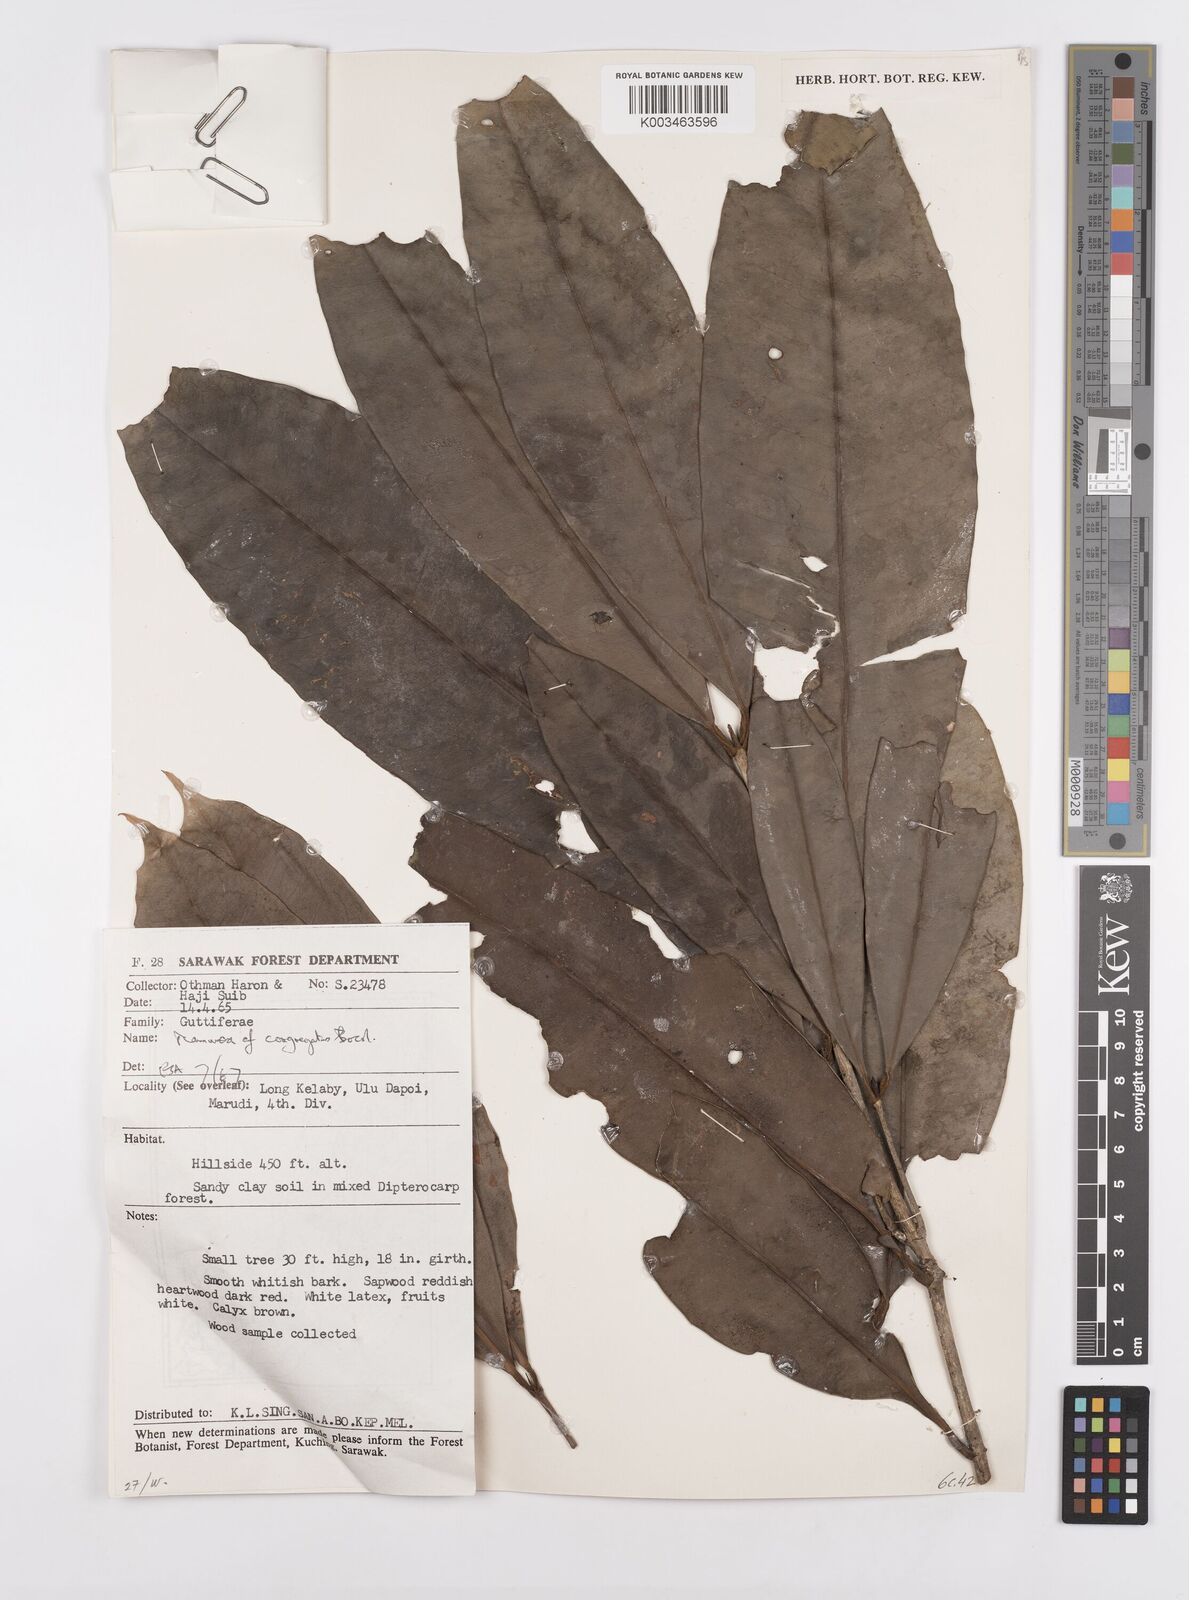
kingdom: Plantae
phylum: Tracheophyta
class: Magnoliopsida
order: Malpighiales
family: Calophyllaceae
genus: Mammea
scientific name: Mammea woodii
